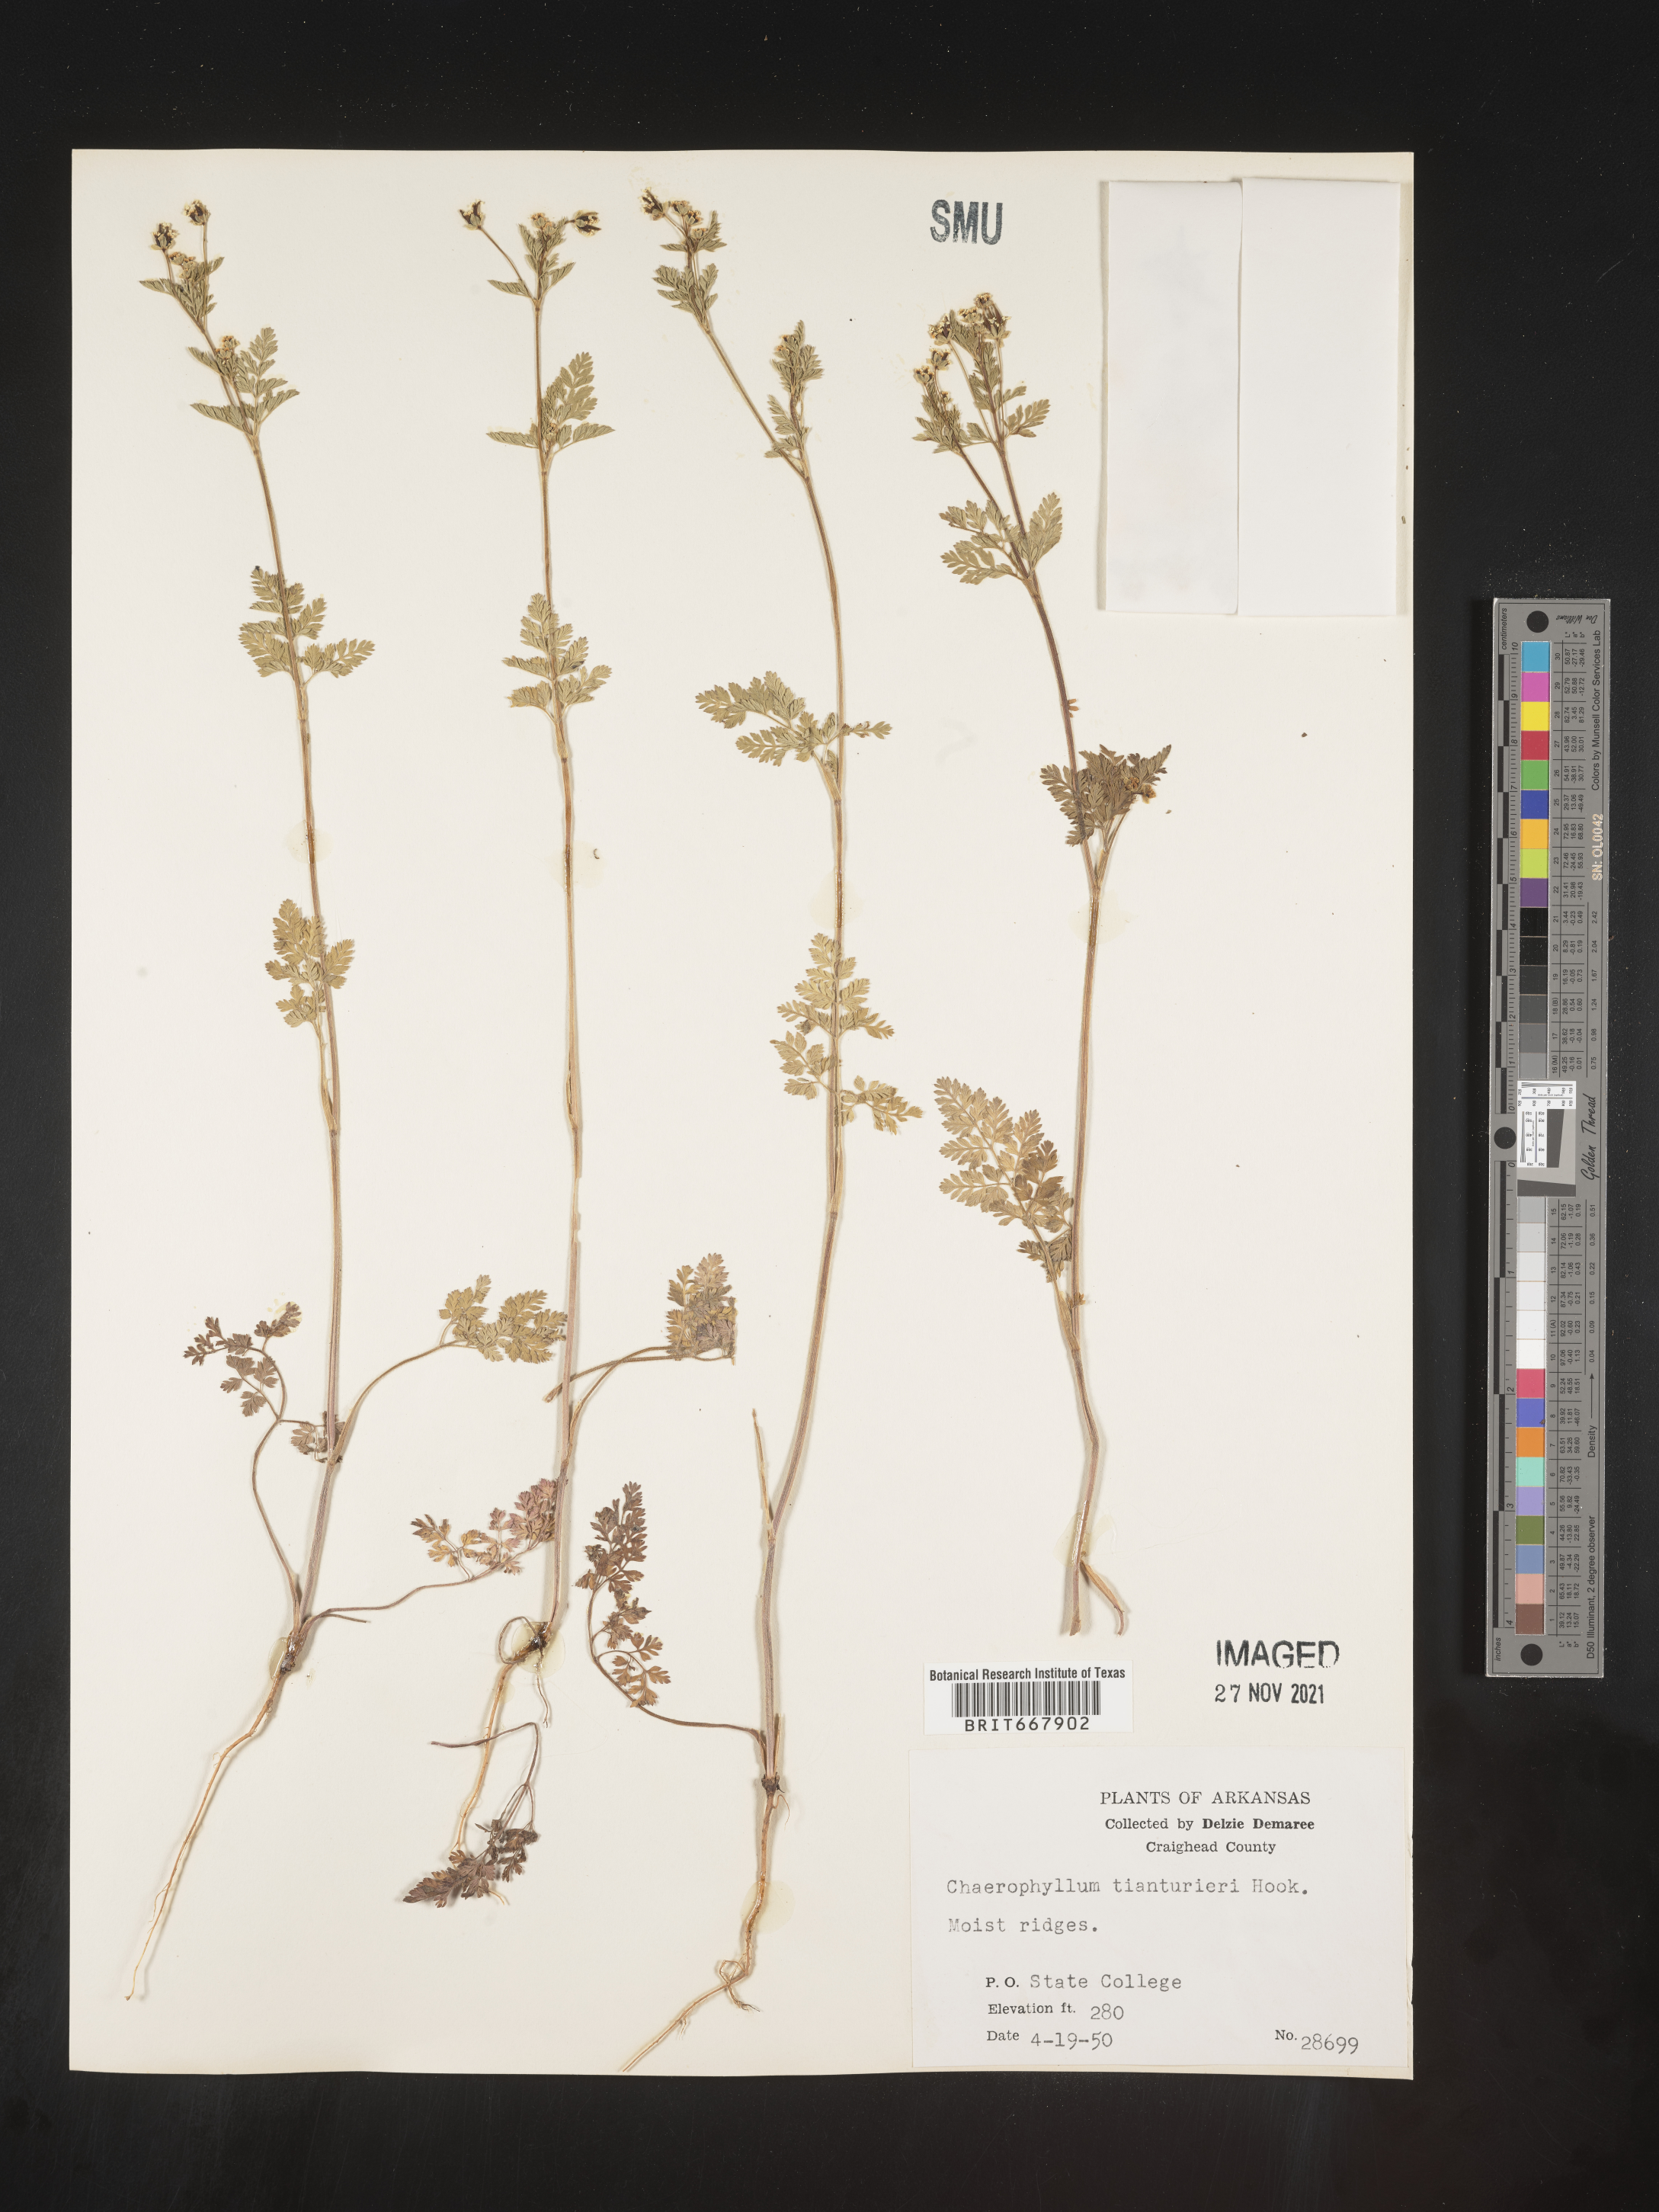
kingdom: Plantae
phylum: Tracheophyta
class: Magnoliopsida
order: Apiales
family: Apiaceae
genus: Chaerophyllum
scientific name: Chaerophyllum tainturieri
